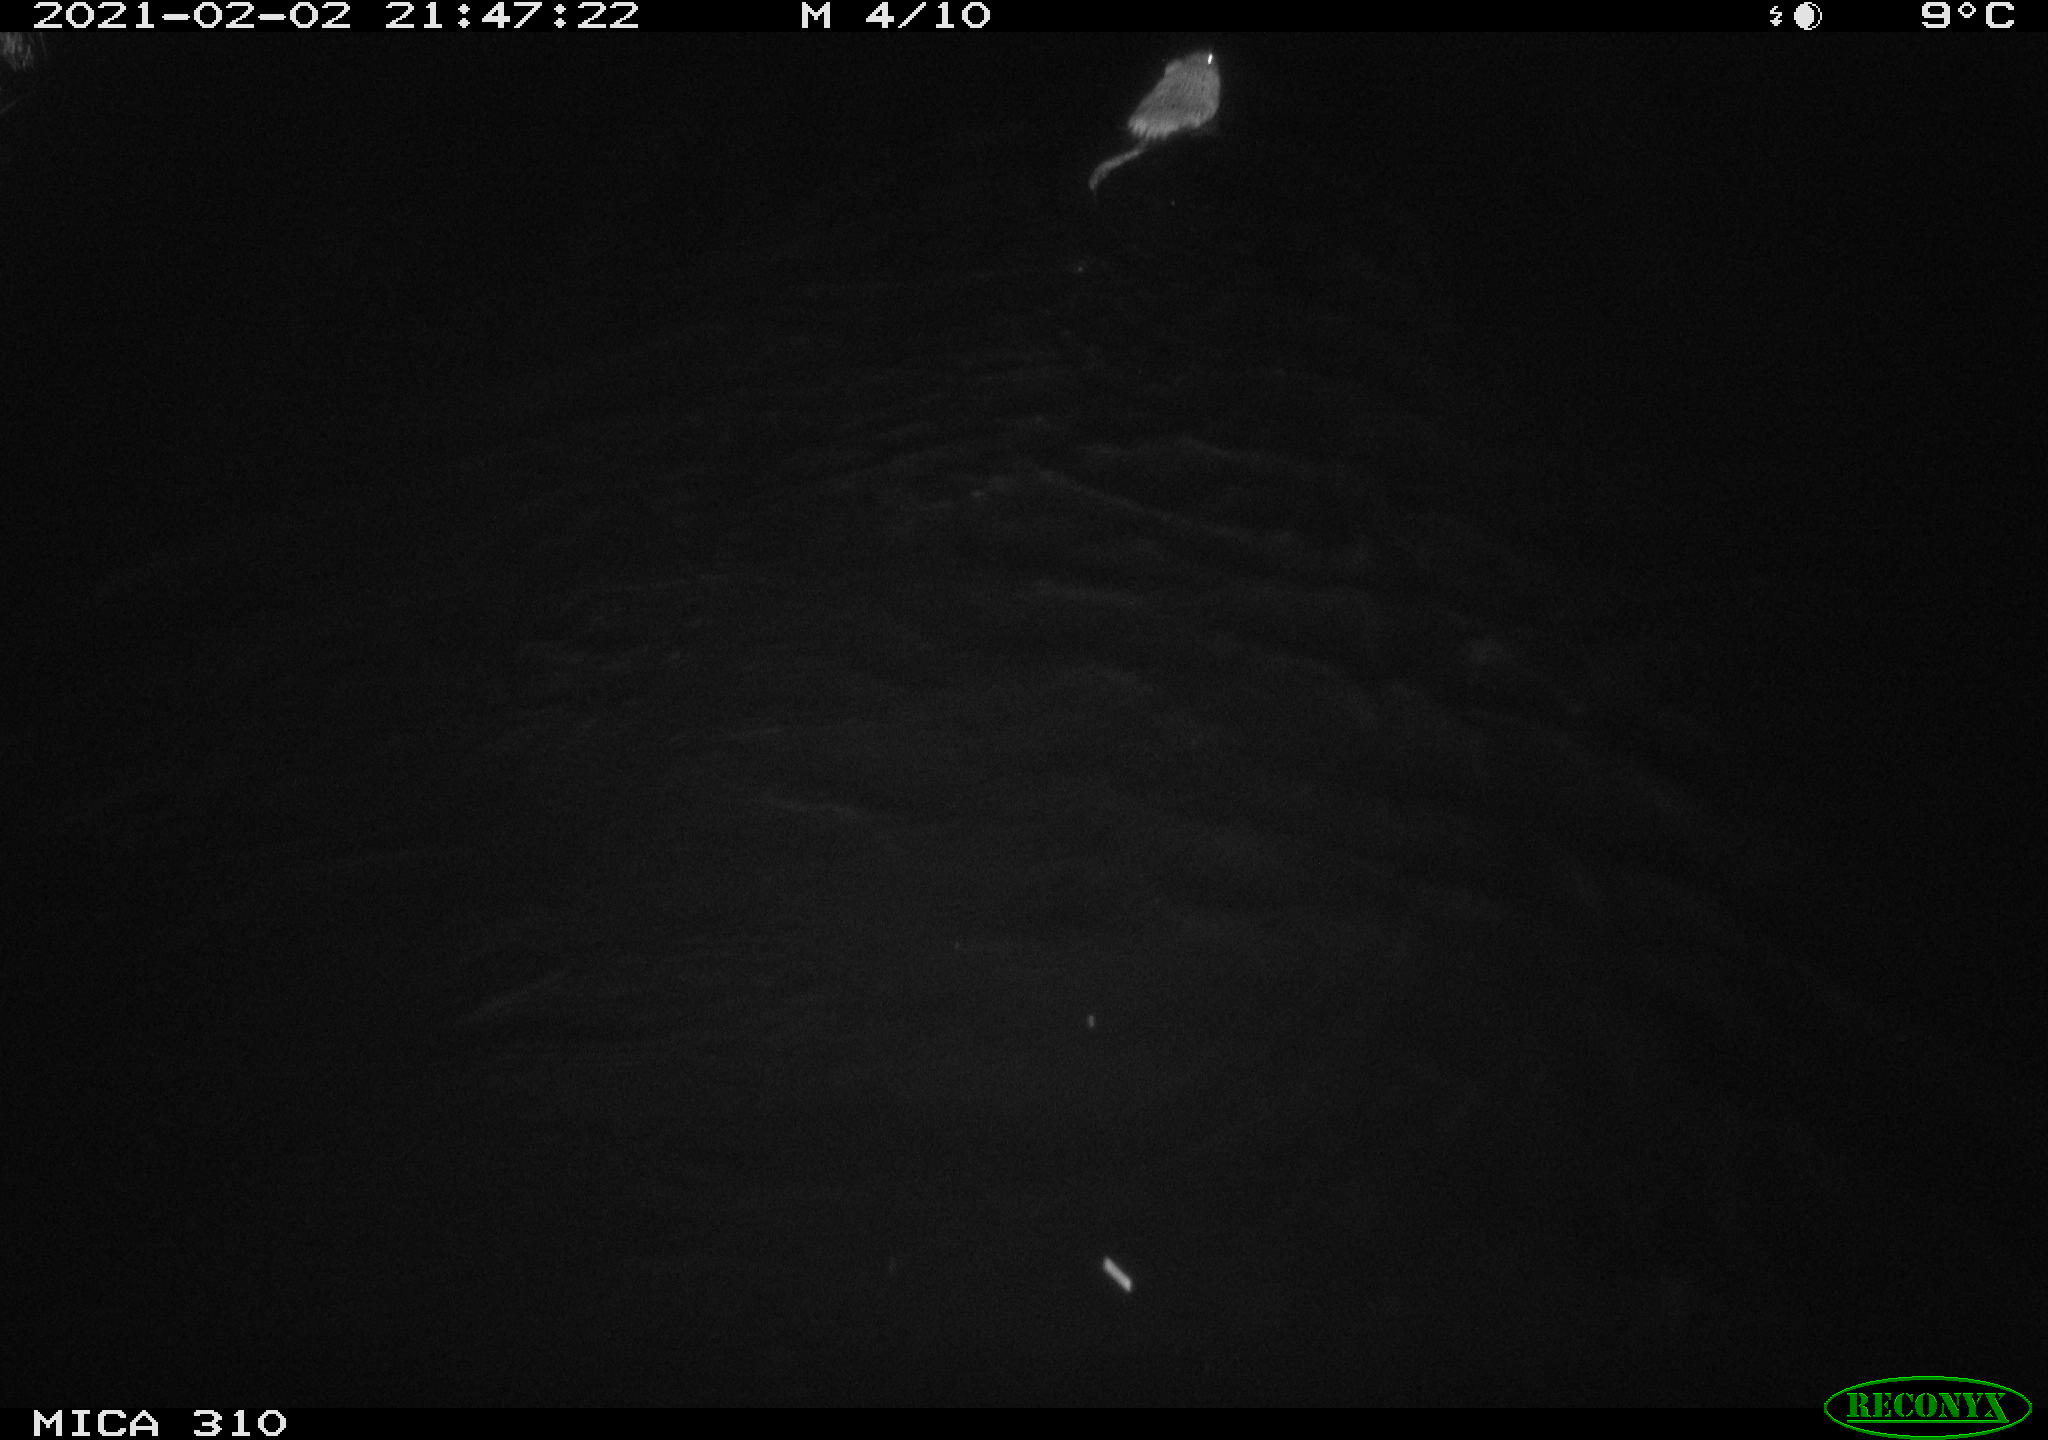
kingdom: Animalia
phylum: Chordata
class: Mammalia
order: Rodentia
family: Cricetidae
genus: Ondatra
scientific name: Ondatra zibethicus
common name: Muskrat
